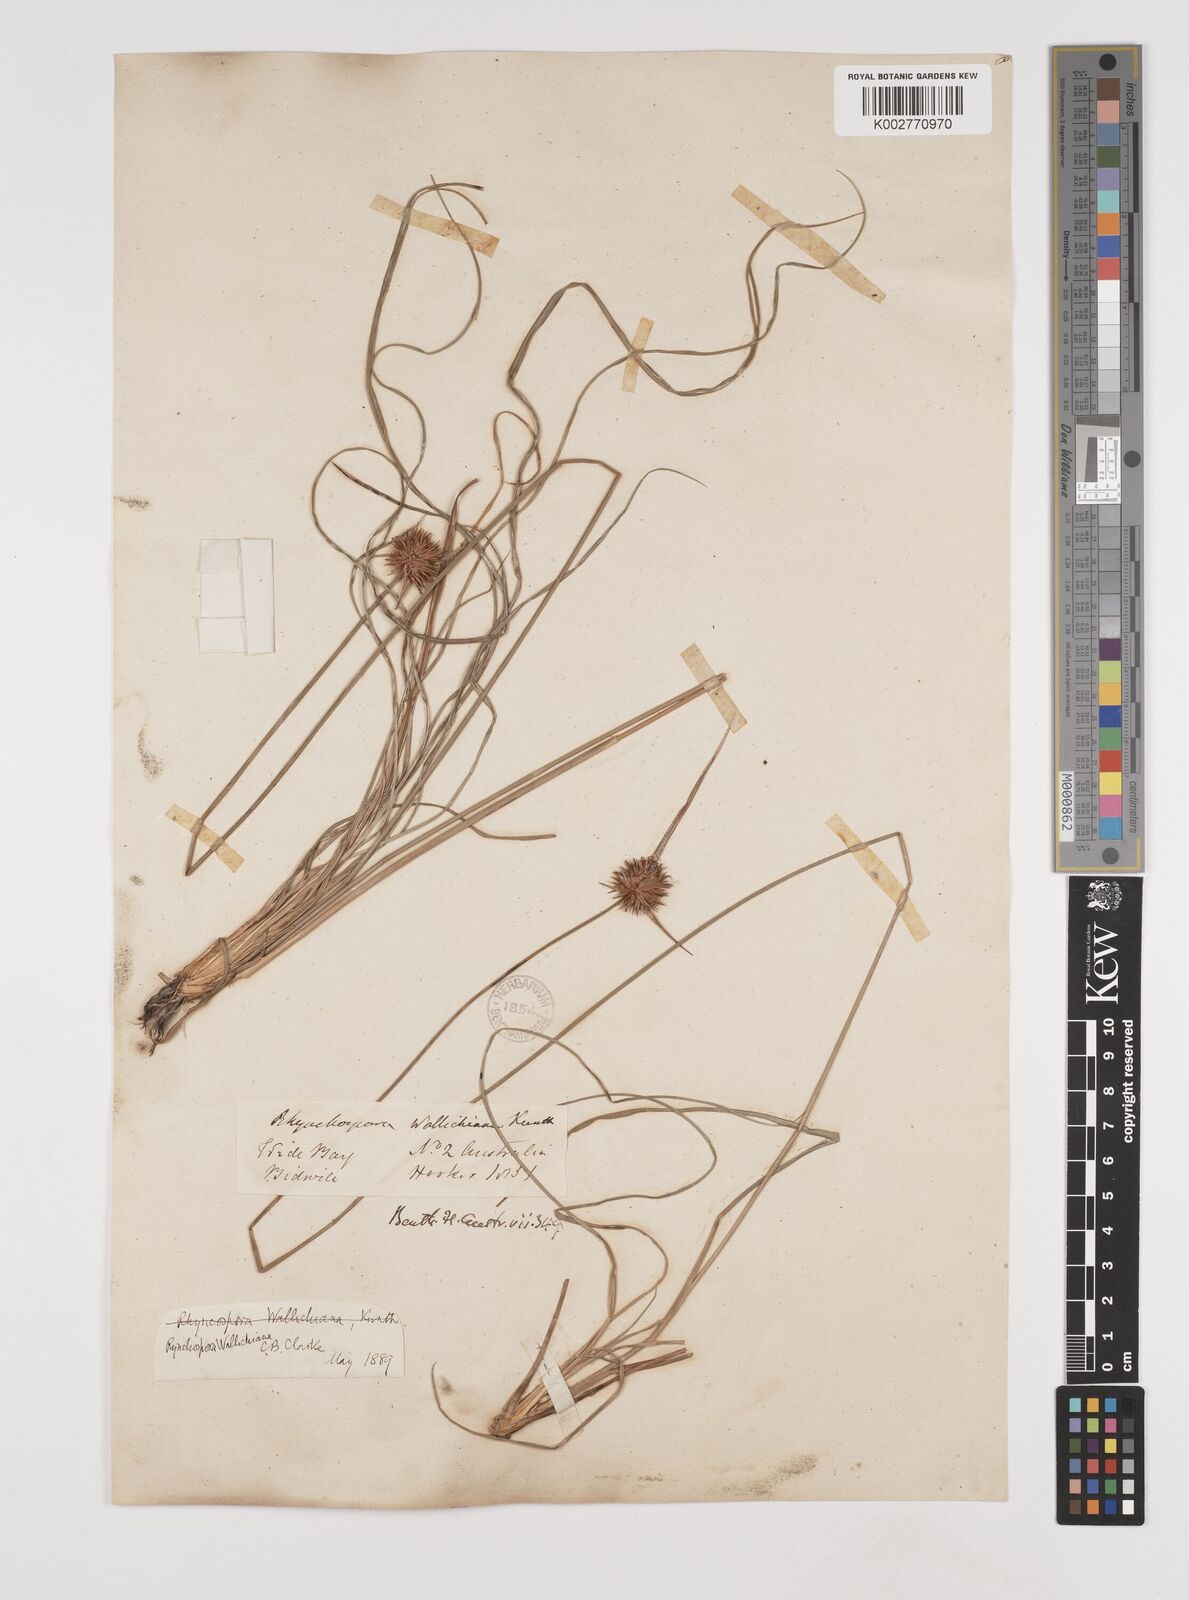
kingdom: Plantae
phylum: Tracheophyta
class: Liliopsida
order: Poales
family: Cyperaceae
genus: Rhynchospora
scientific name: Rhynchospora rubra
